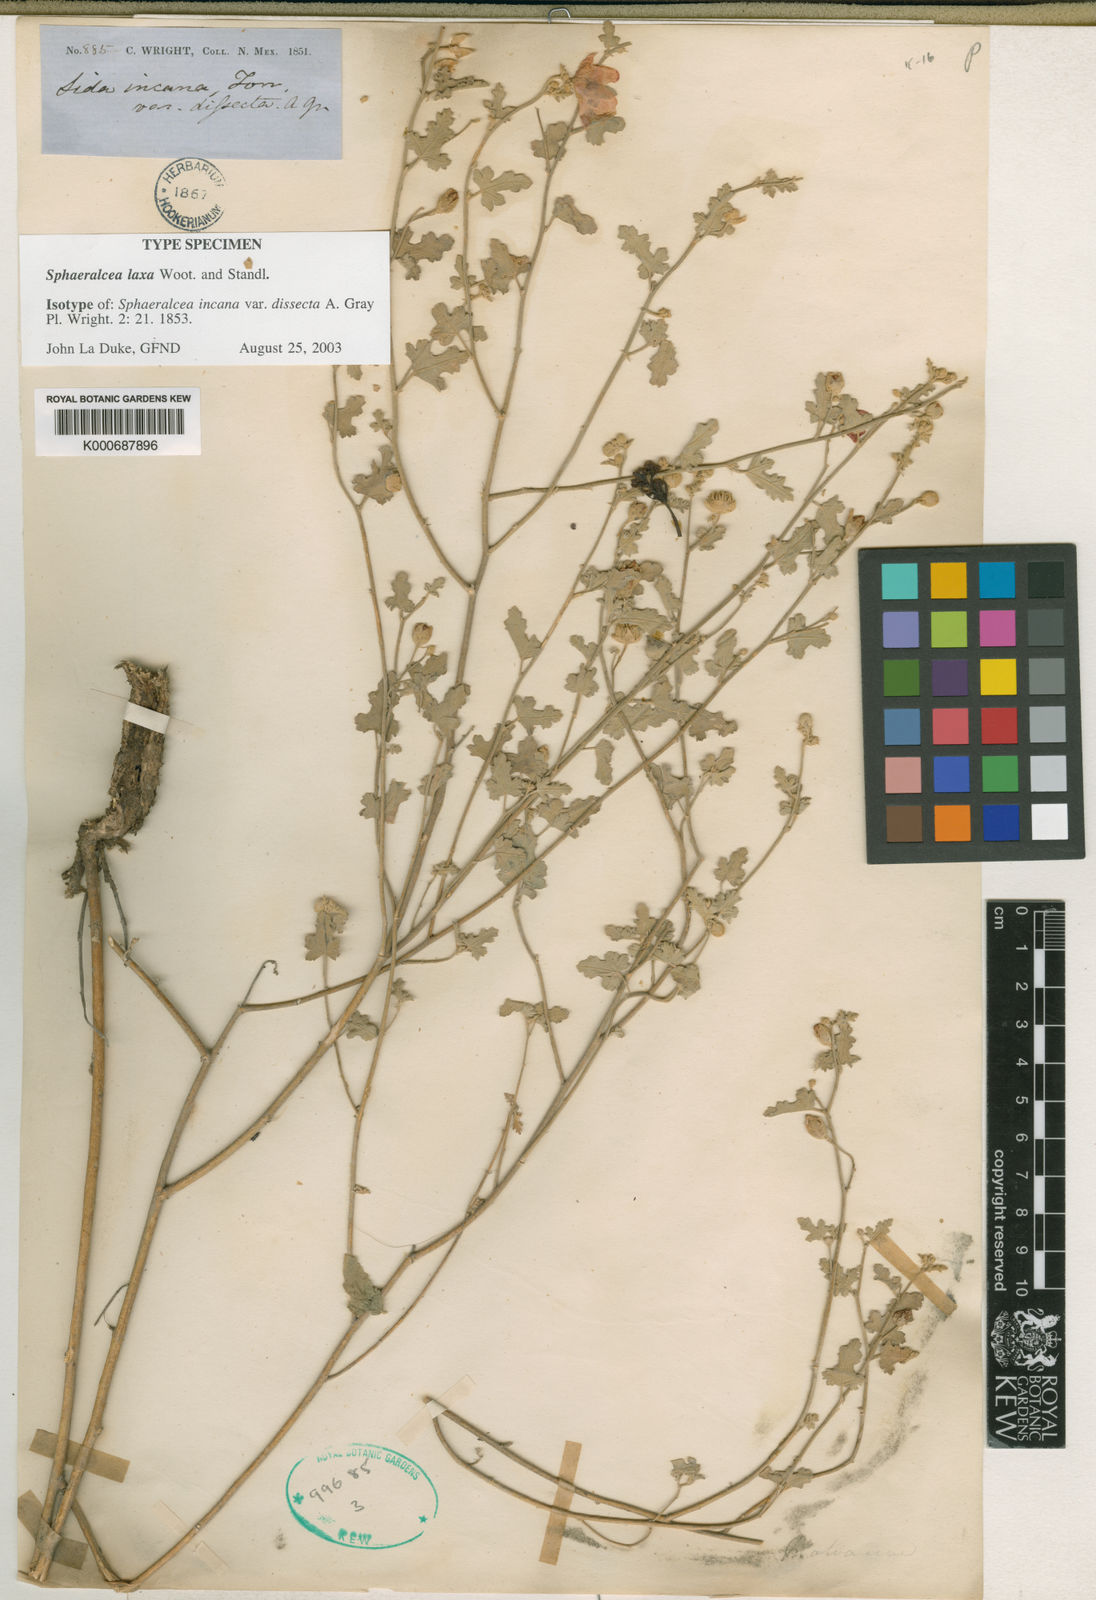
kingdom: Plantae
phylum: Tracheophyta
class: Magnoliopsida
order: Malvales
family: Malvaceae
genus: Sphaeralcea
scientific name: Sphaeralcea laxa
